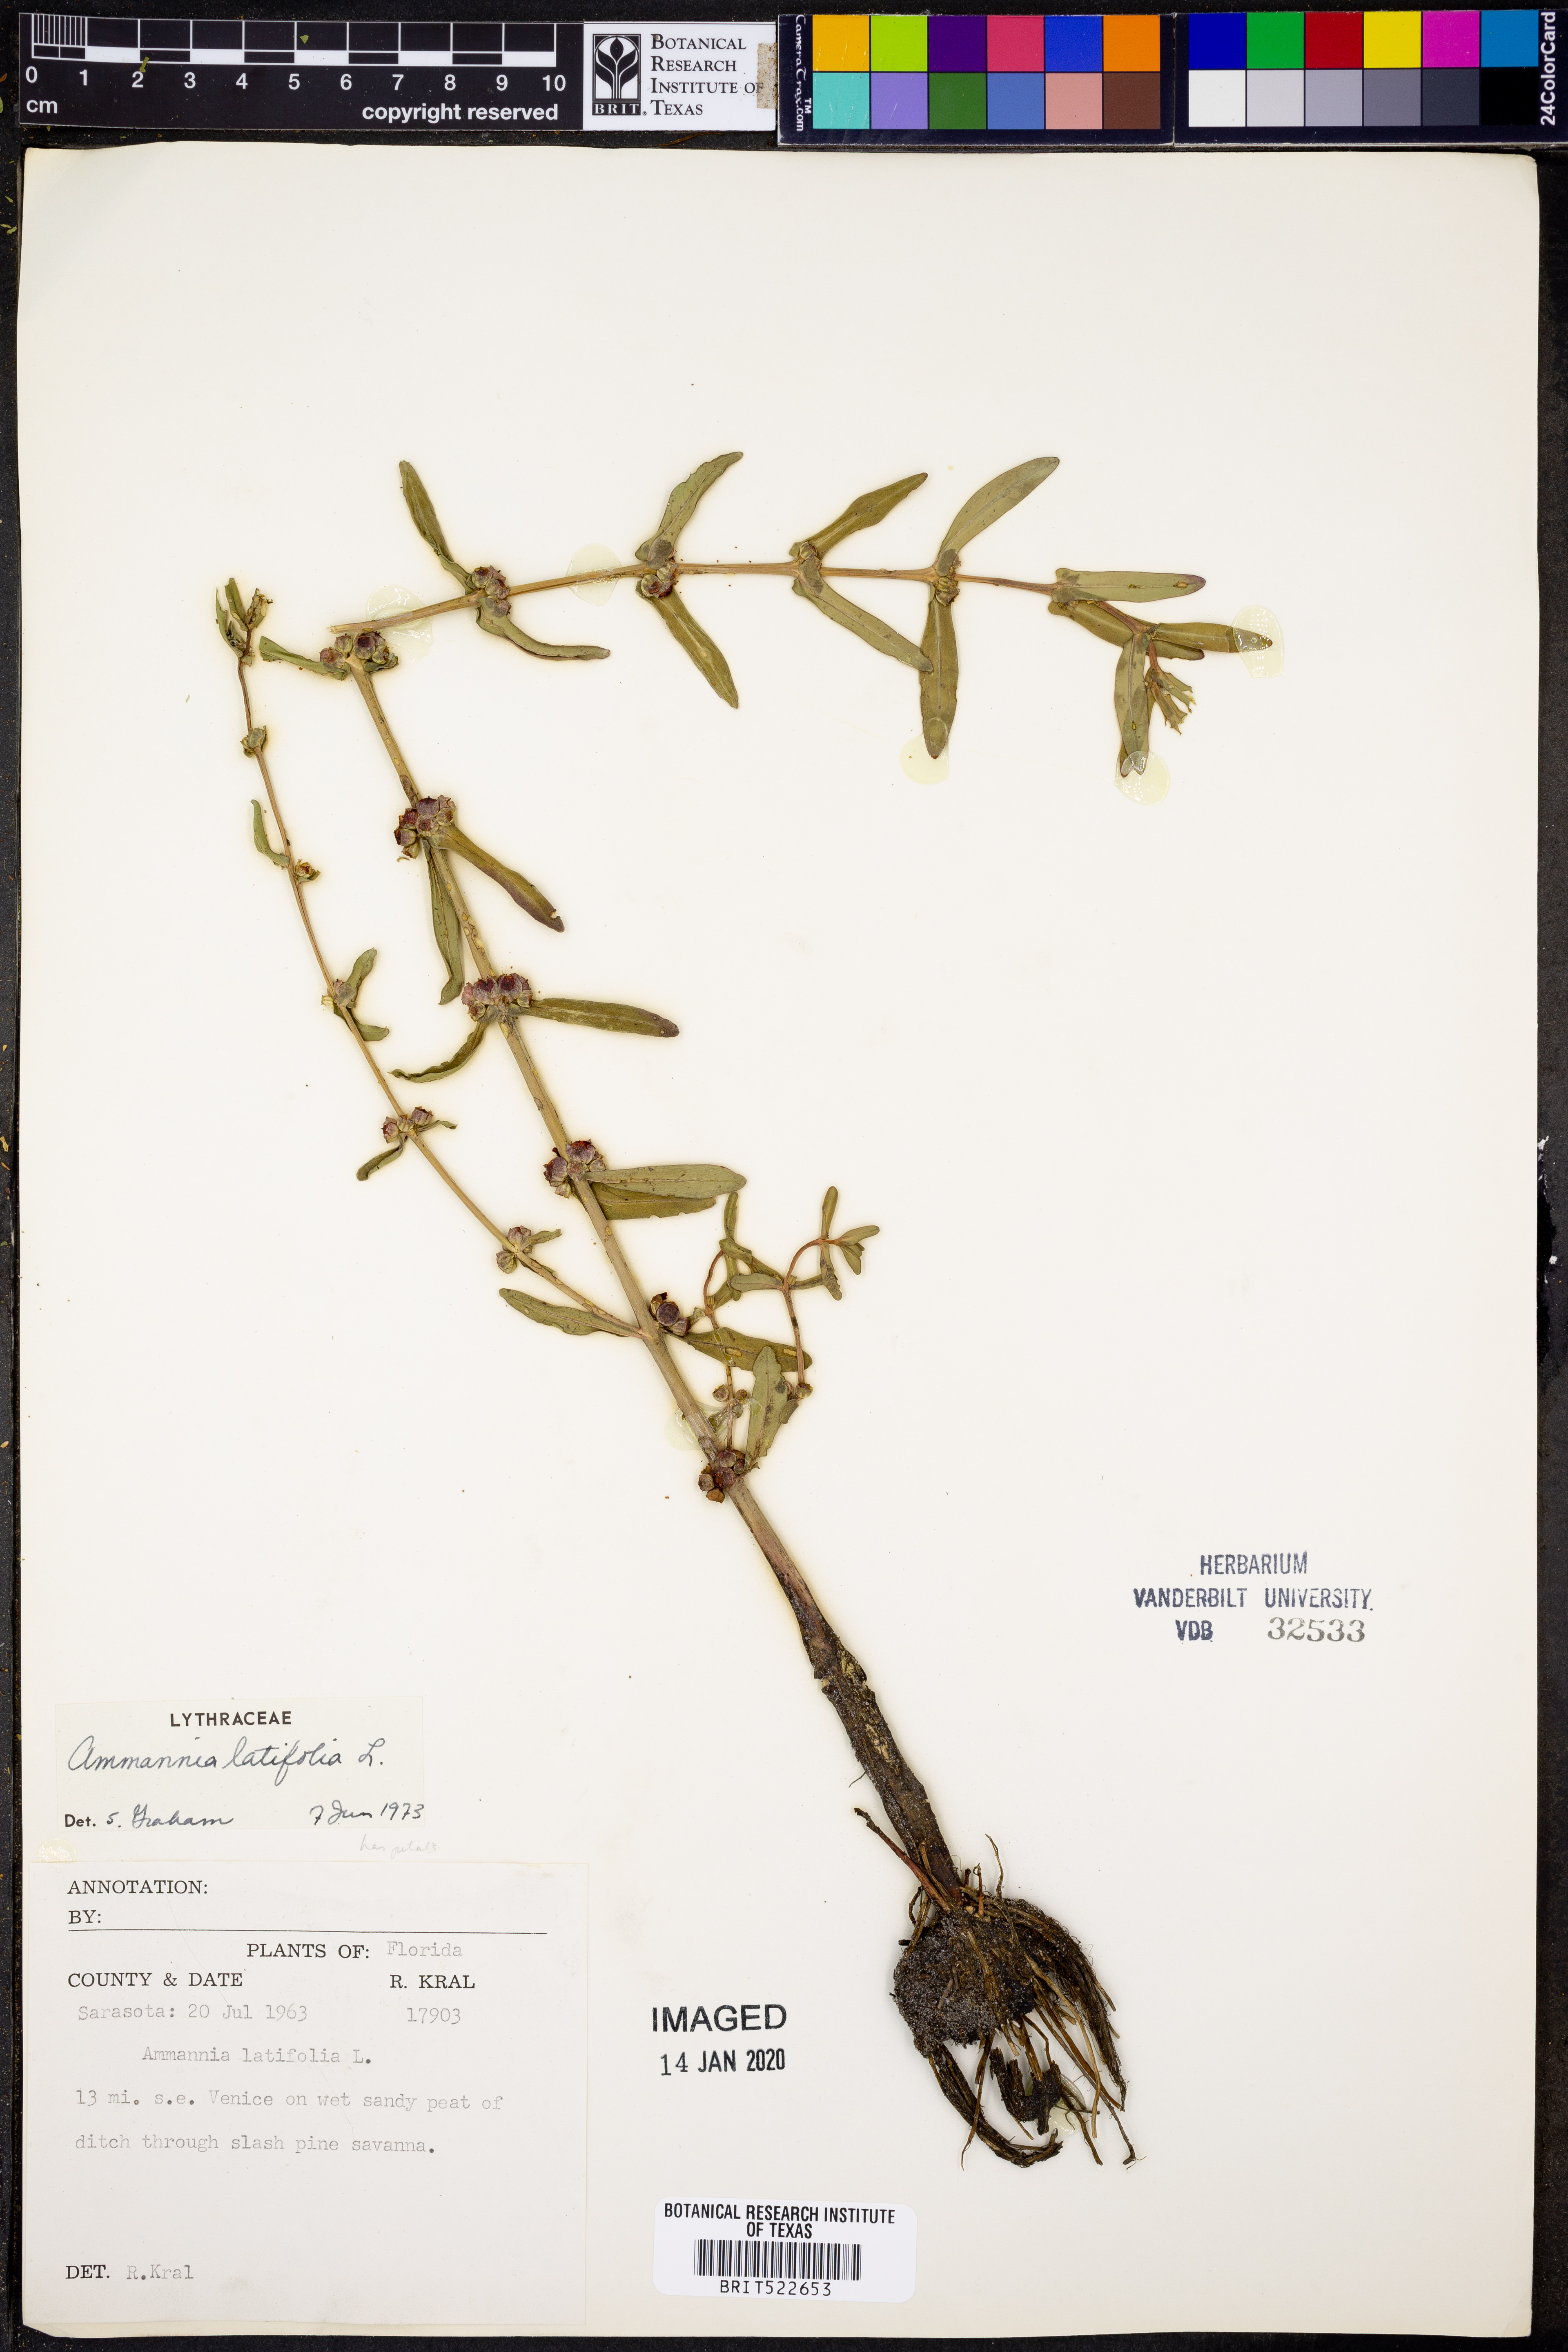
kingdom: Plantae
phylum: Tracheophyta
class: Magnoliopsida
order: Myrtales
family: Lythraceae
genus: Ammannia
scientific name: Ammannia latifolia
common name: Toothcup
